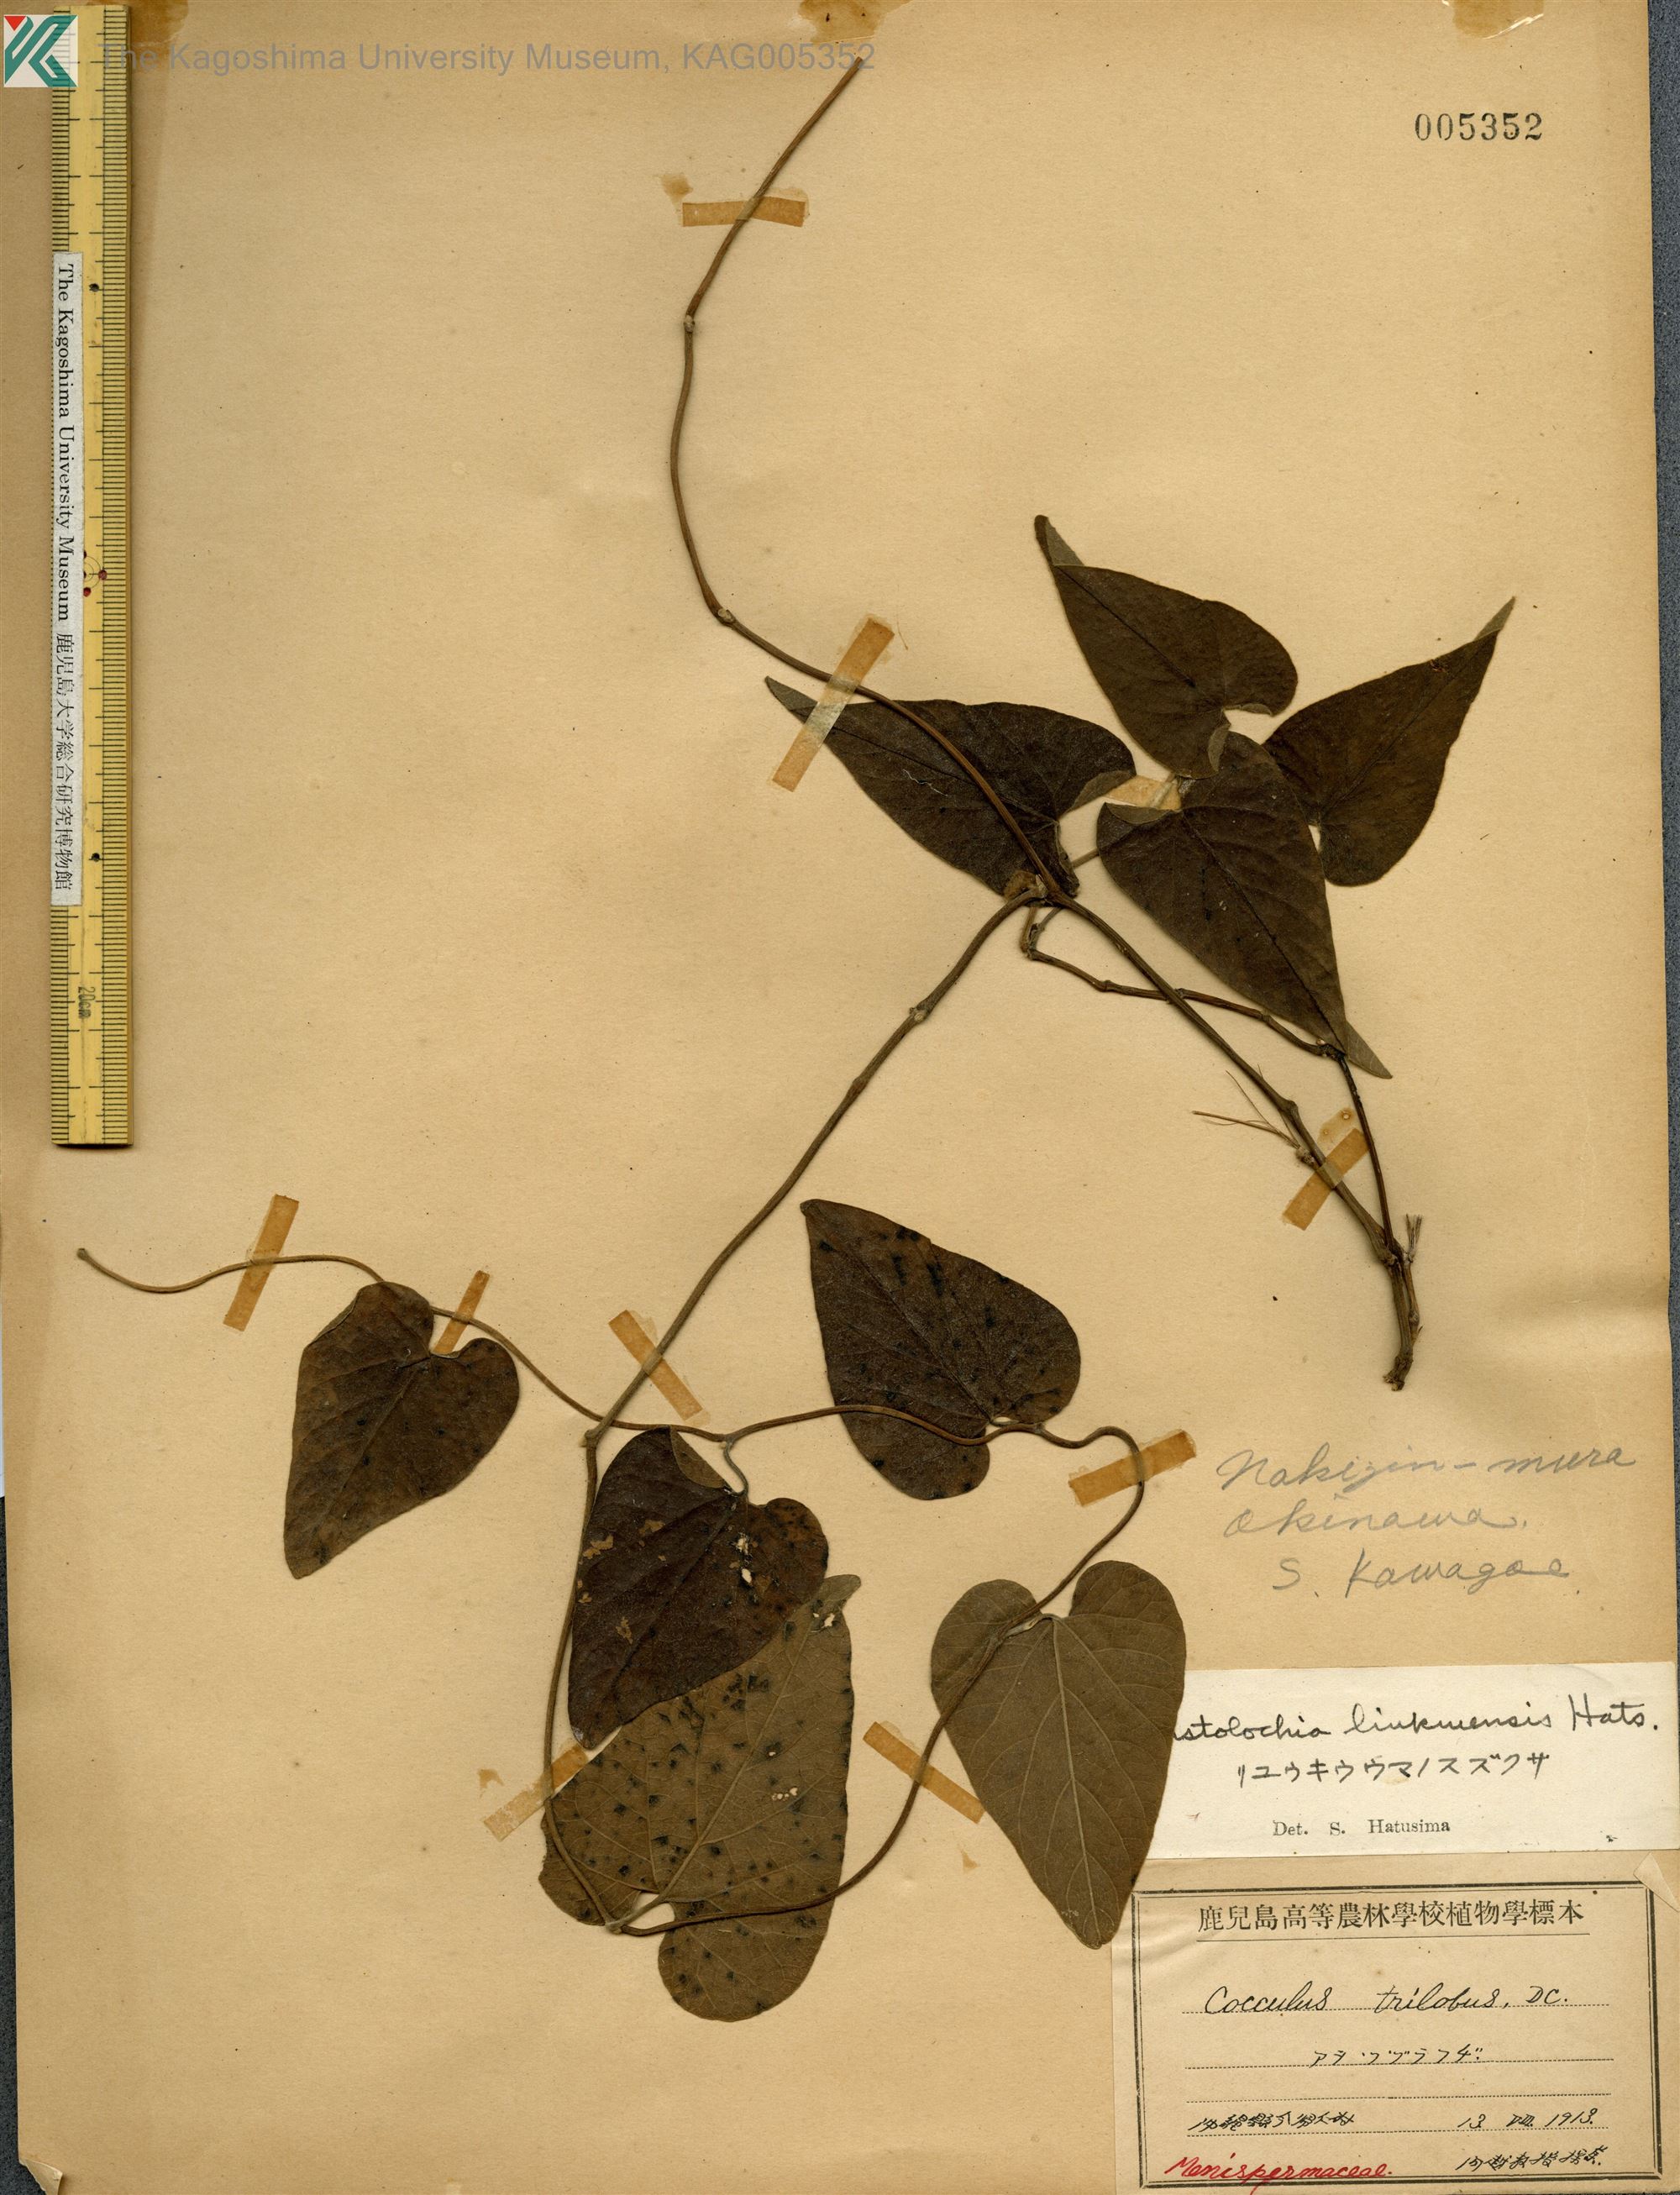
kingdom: Plantae
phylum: Tracheophyta
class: Magnoliopsida
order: Piperales
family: Aristolochiaceae
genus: Isotrema
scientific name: Isotrema liukiuense
